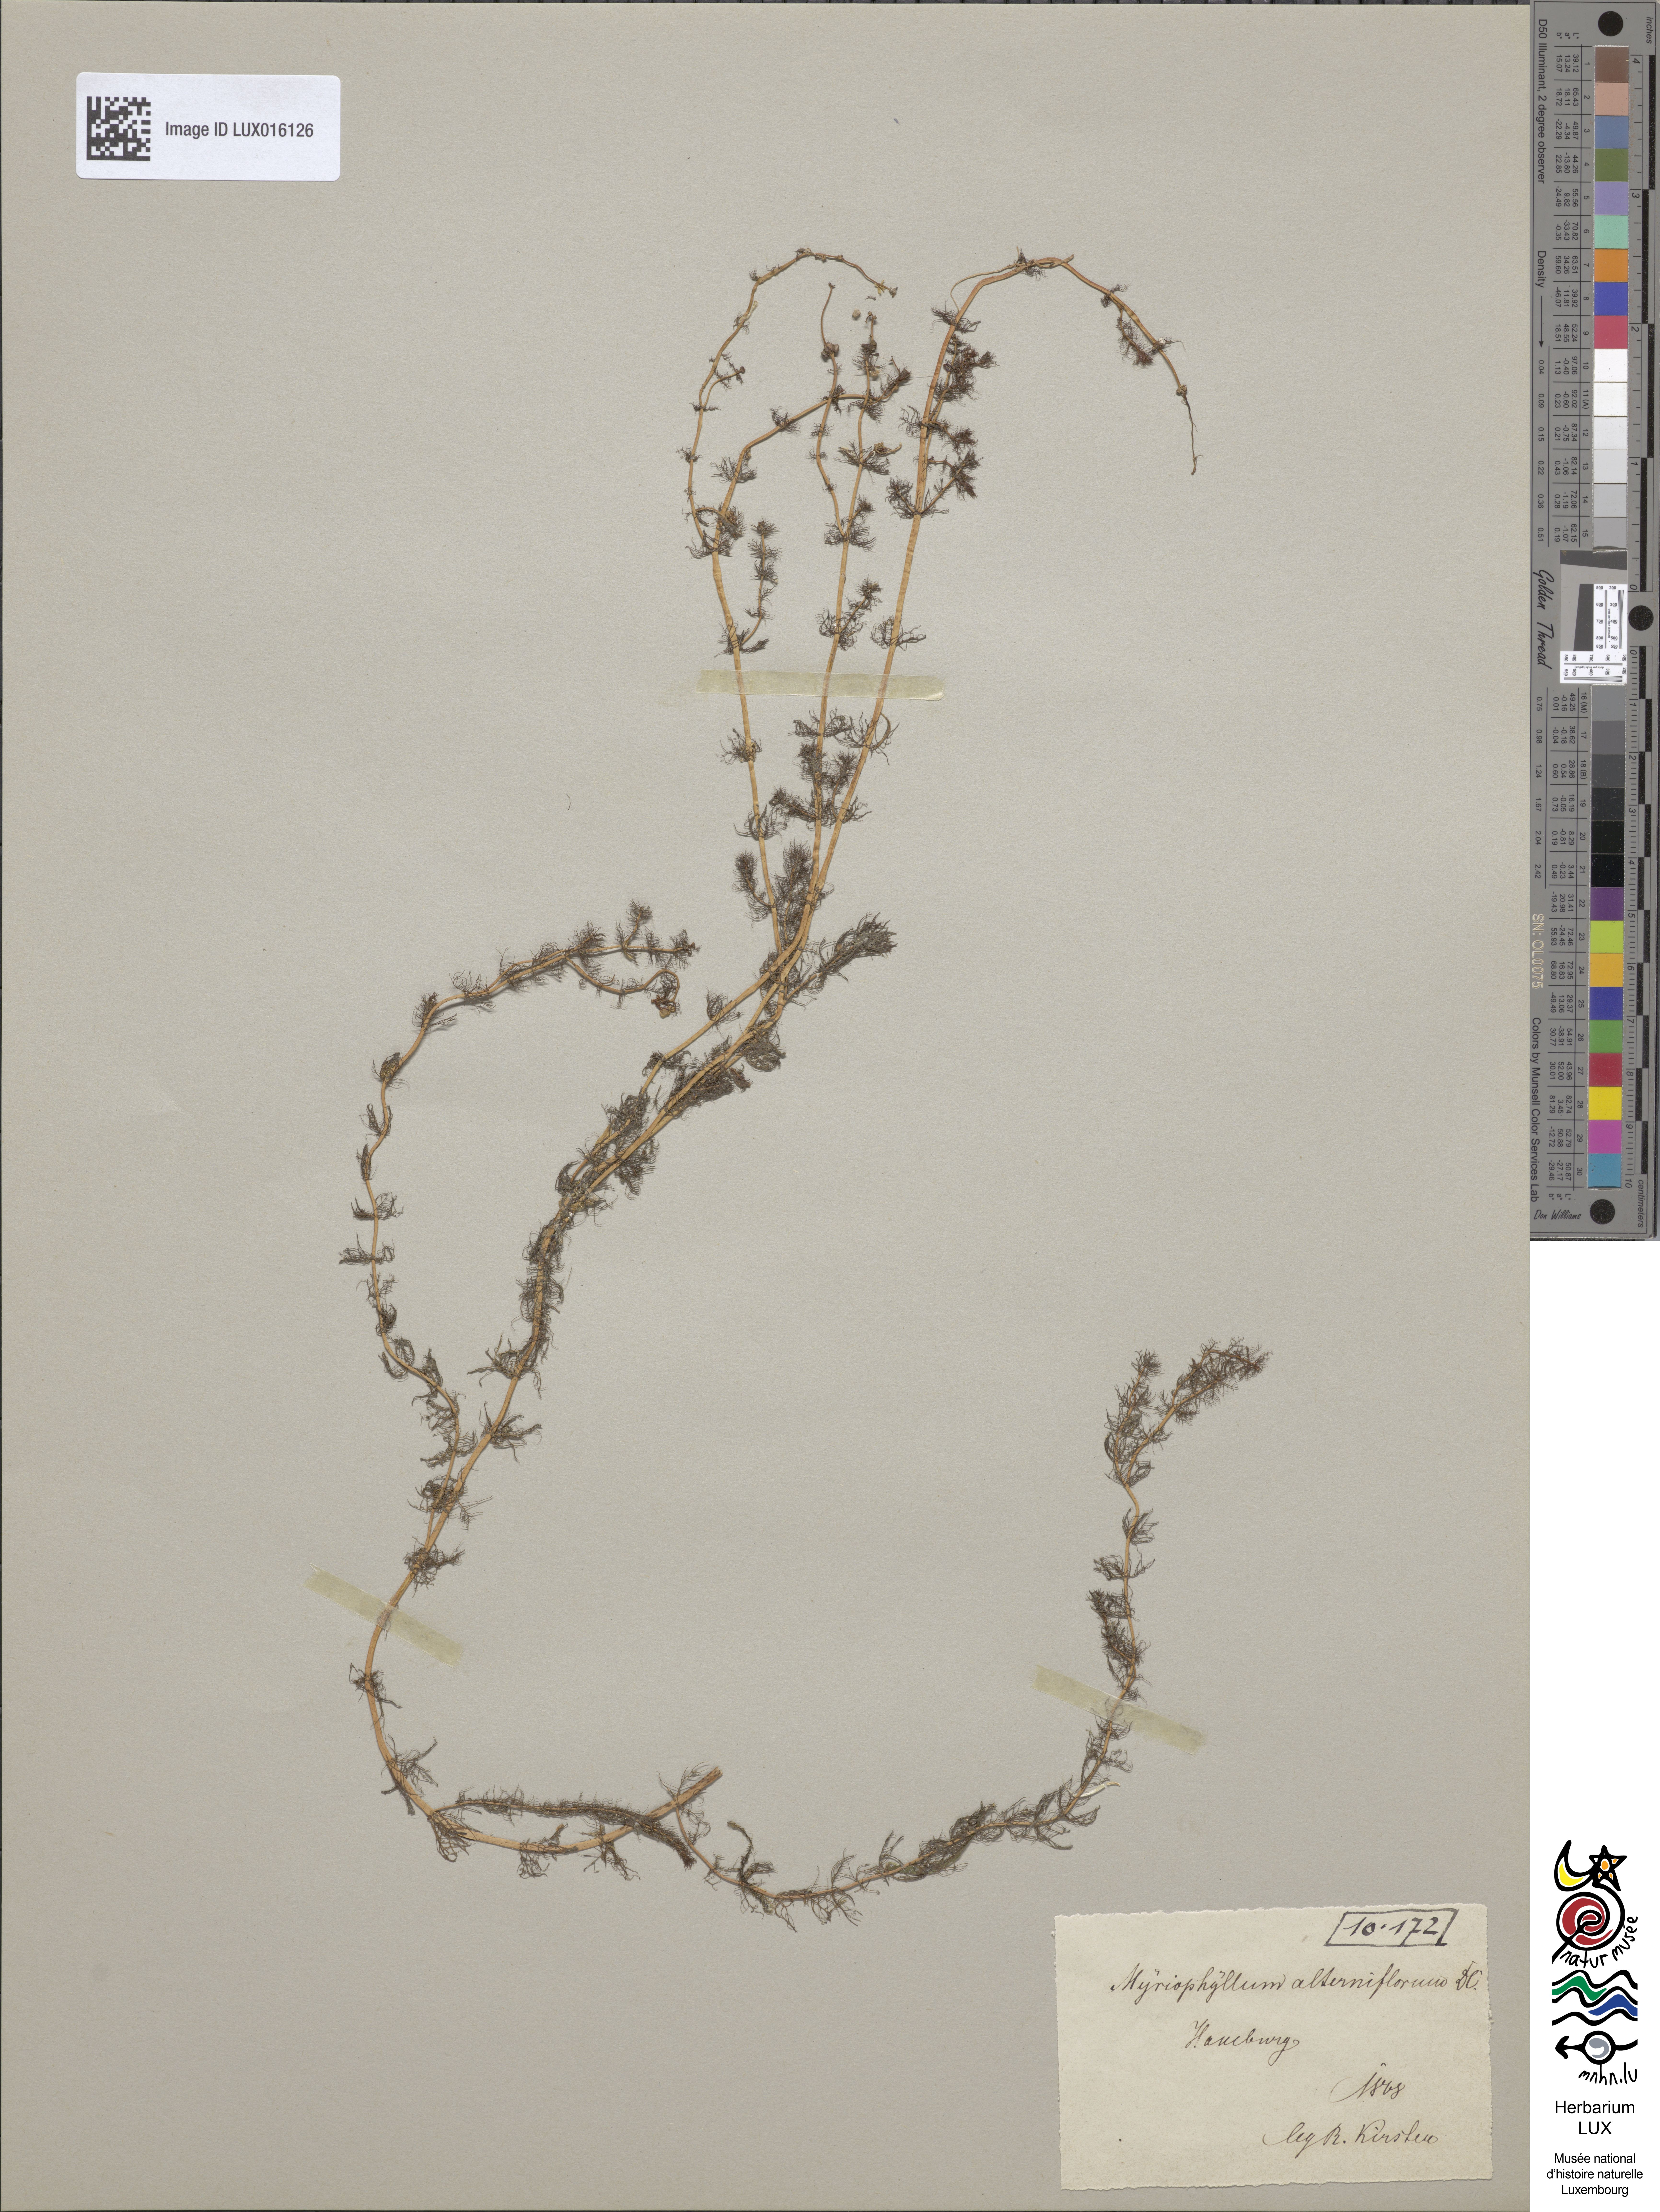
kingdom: Plantae
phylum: Tracheophyta
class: Magnoliopsida
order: Saxifragales
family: Haloragaceae
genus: Myriophyllum
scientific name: Myriophyllum alterniflorum
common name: Alternate water-milfoil
